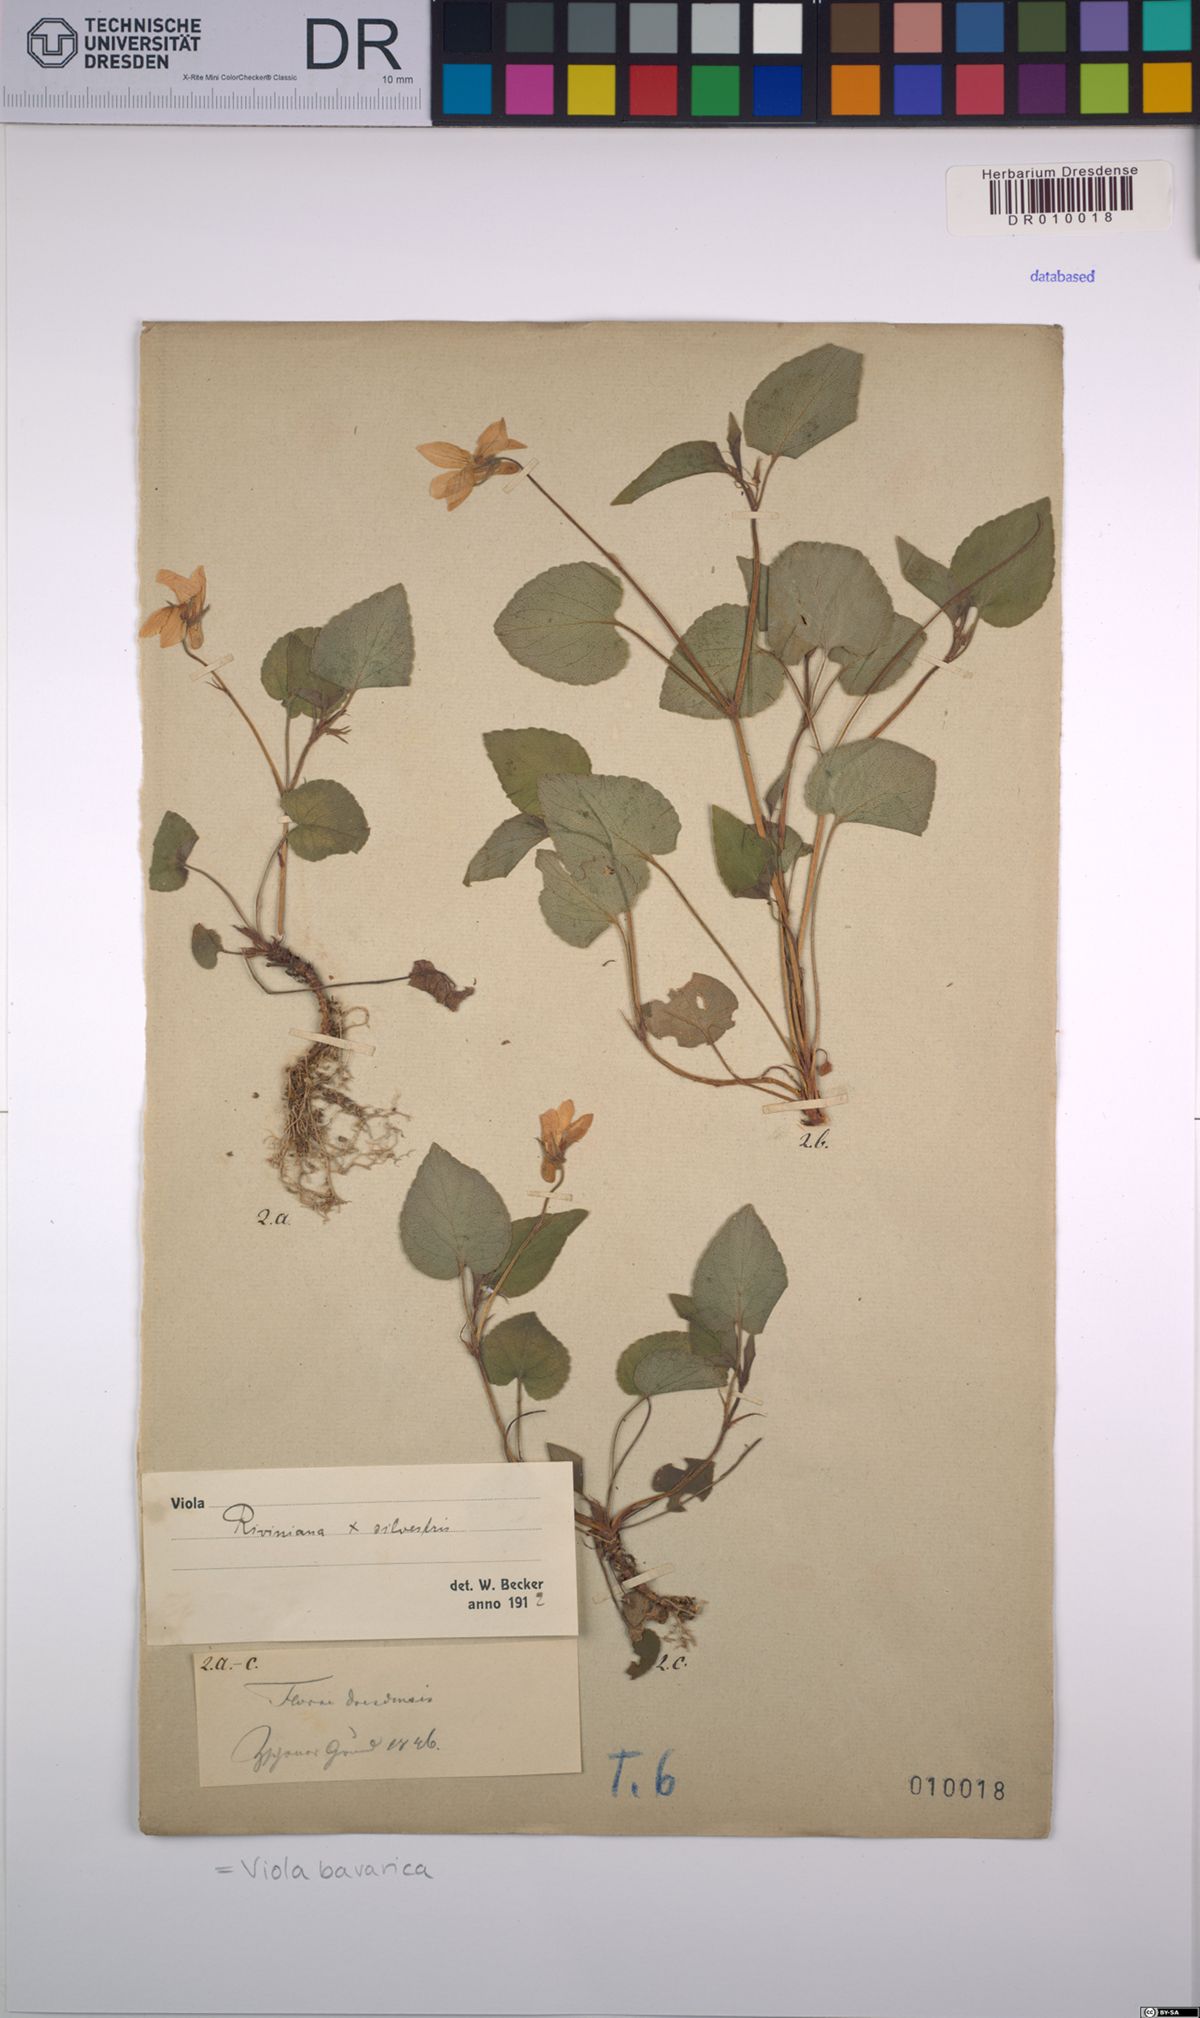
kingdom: Plantae
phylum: Tracheophyta
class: Magnoliopsida
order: Malpighiales
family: Violaceae
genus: Viola
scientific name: Viola bavarica
